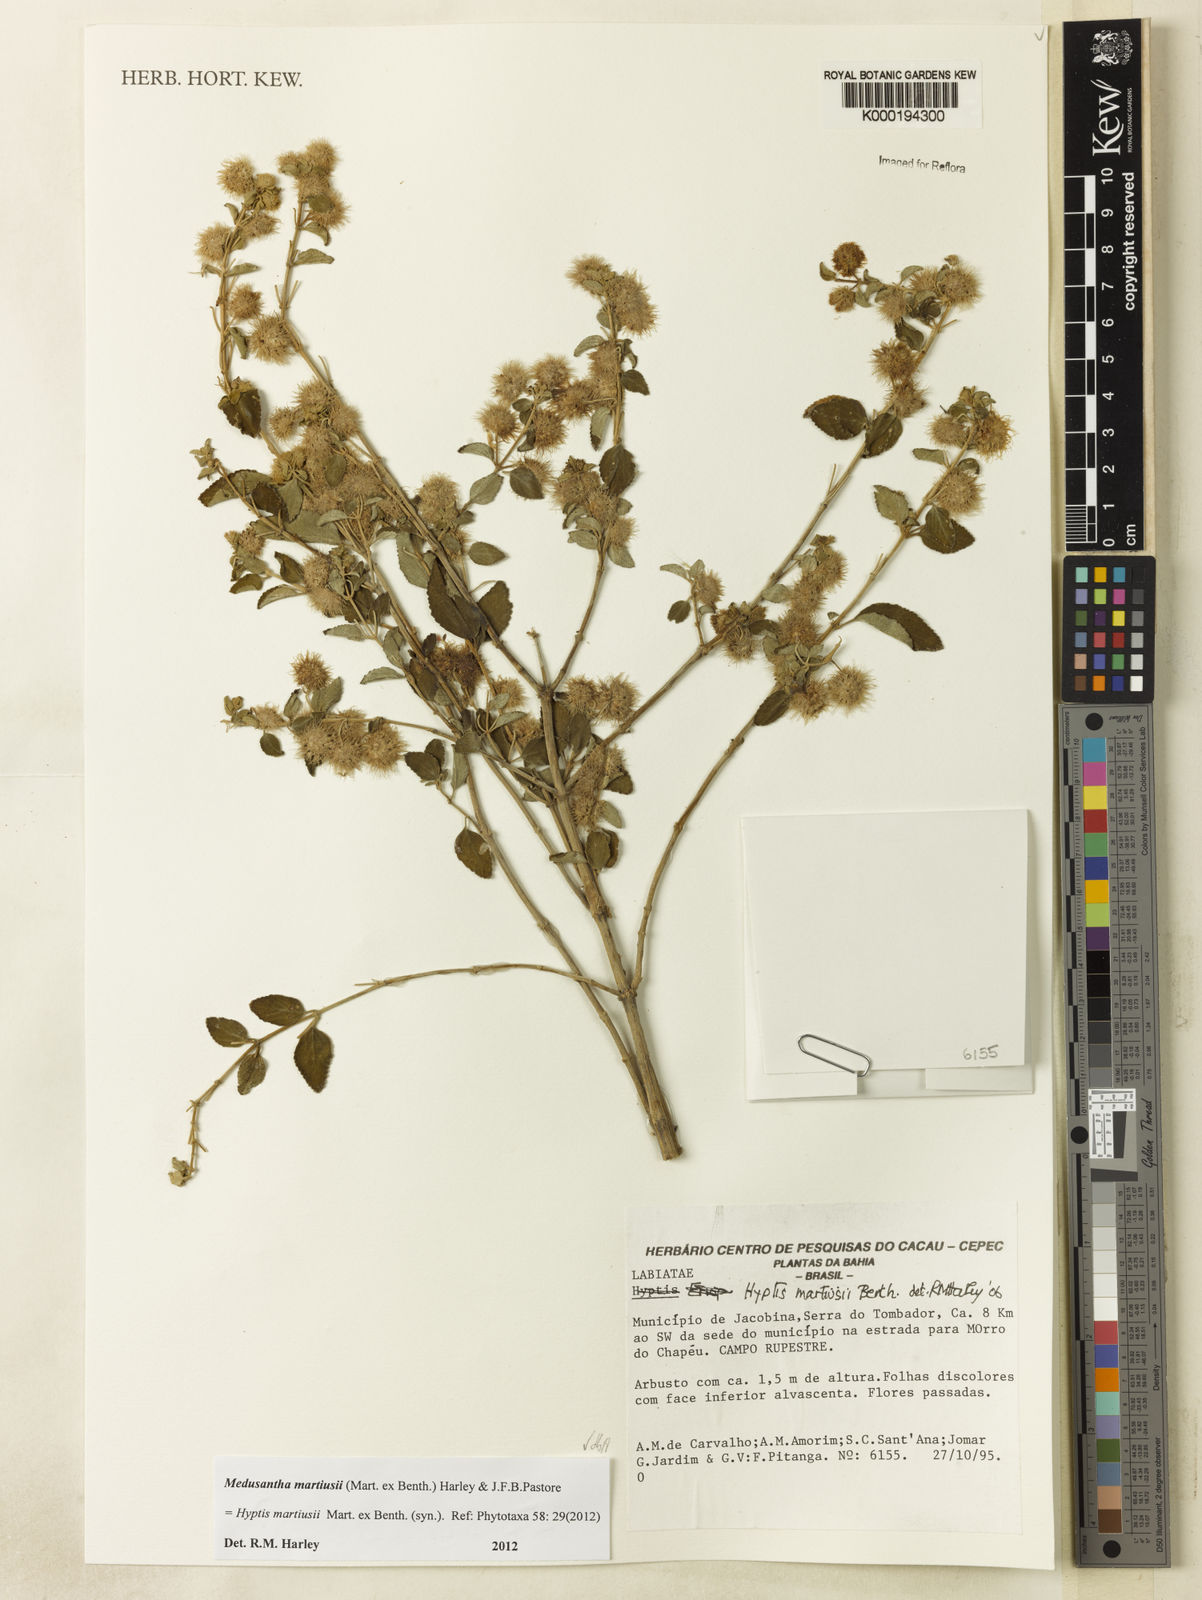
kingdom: Plantae
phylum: Tracheophyta
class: Magnoliopsida
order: Lamiales
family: Lamiaceae
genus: Medusantha
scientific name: Medusantha martiusii
